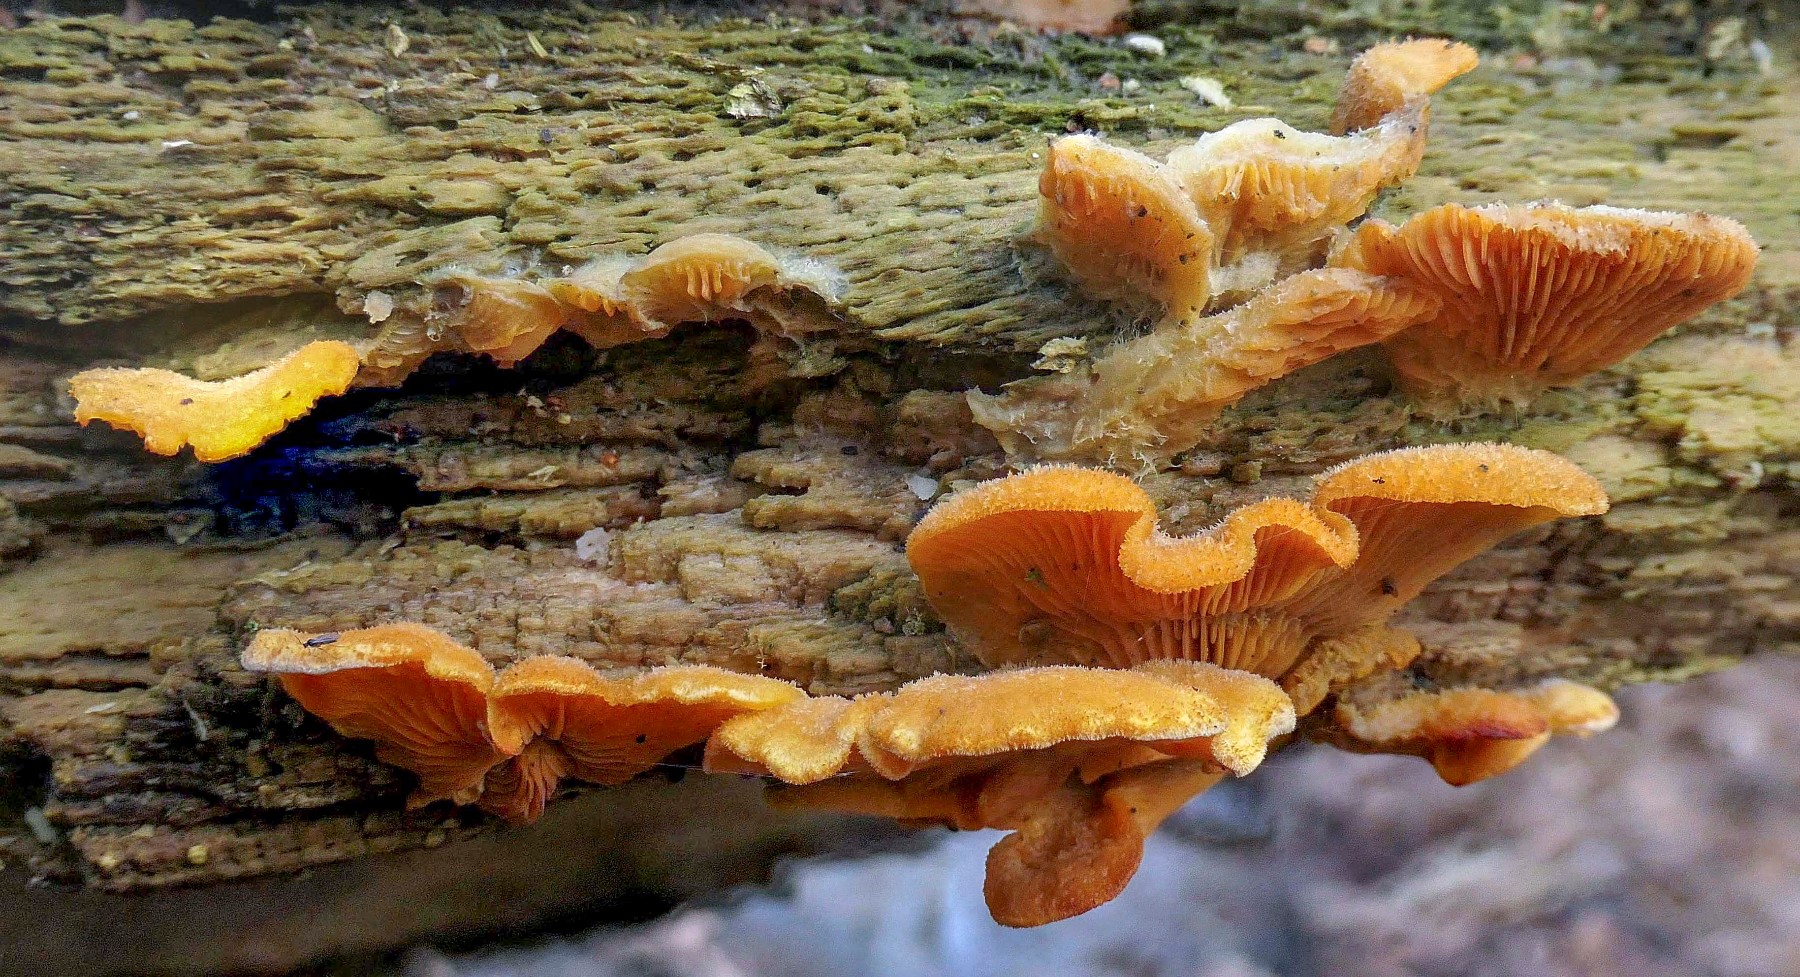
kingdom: Fungi
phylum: Basidiomycota
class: Agaricomycetes
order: Agaricales
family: Phyllotopsidaceae
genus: Phyllotopsis
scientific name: Phyllotopsis nidulans
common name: okkerblad
